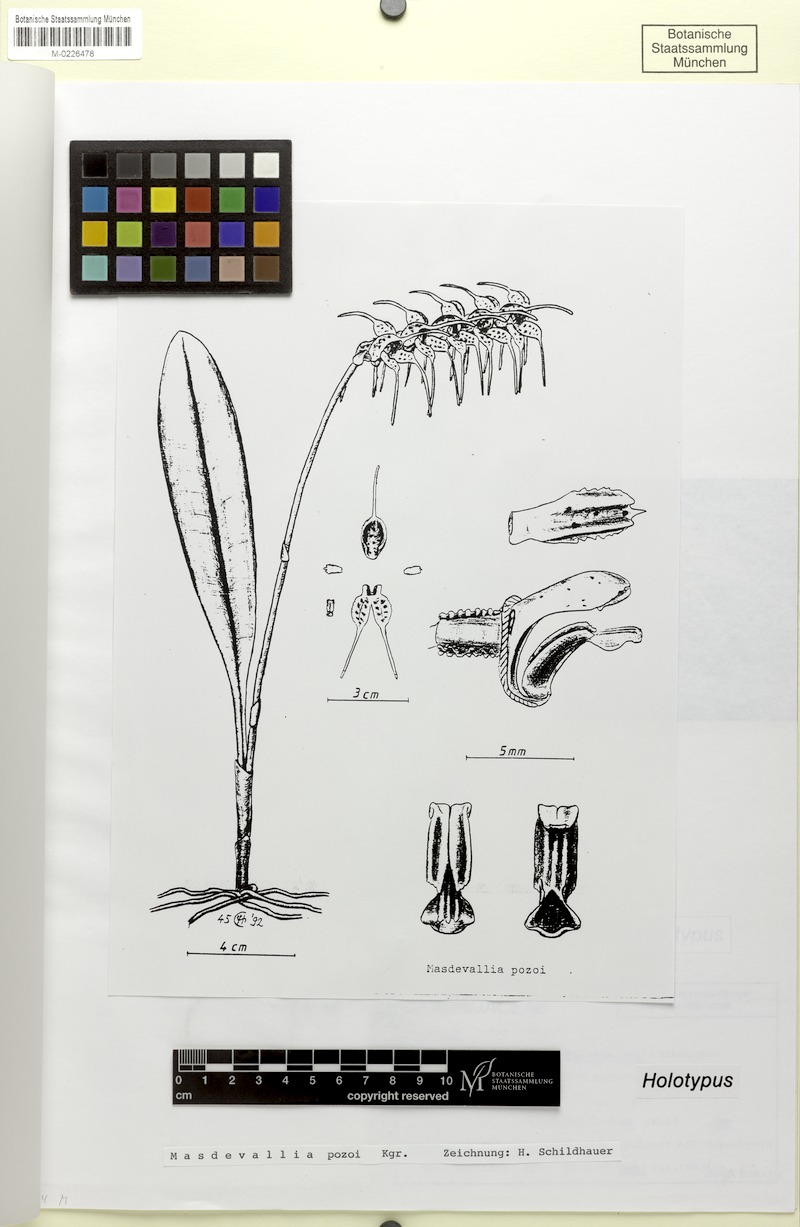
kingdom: Plantae
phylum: Tracheophyta
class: Liliopsida
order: Asparagales
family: Orchidaceae
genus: Masdevallia
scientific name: Masdevallia pozoi
